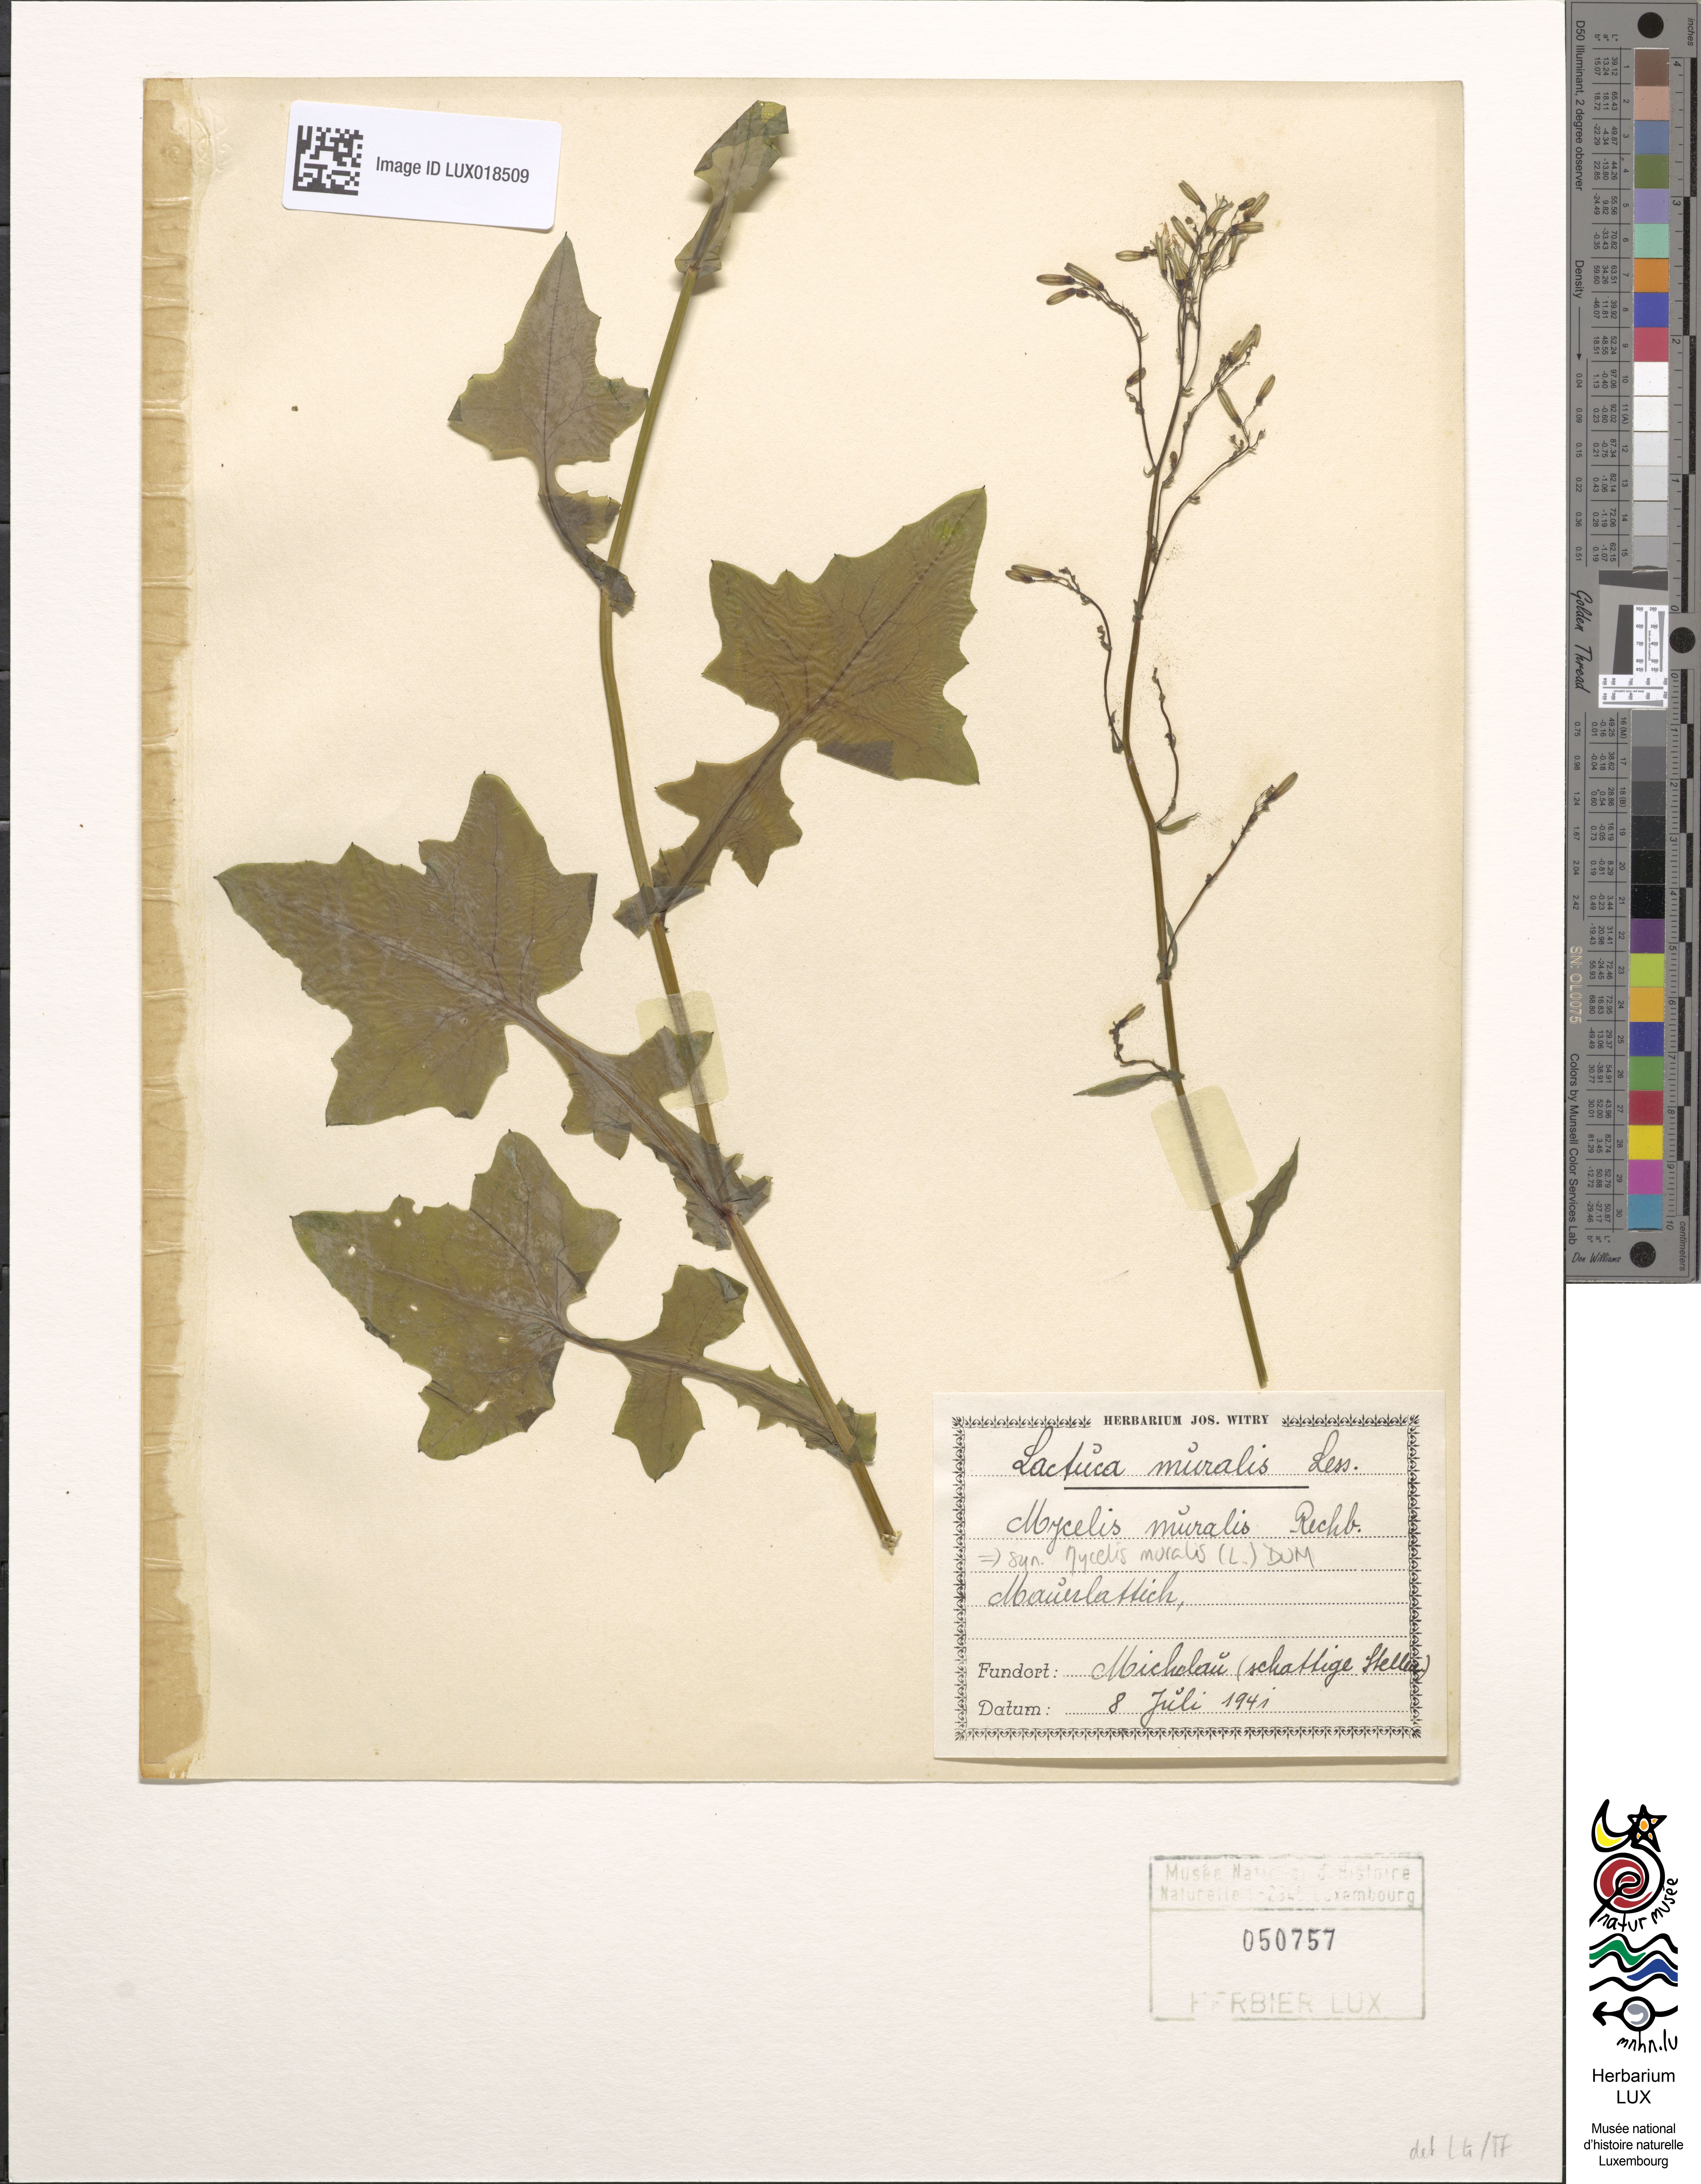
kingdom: Plantae
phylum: Tracheophyta
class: Magnoliopsida
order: Asterales
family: Asteraceae
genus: Mycelis
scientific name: Mycelis muralis
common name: Wall lettuce
